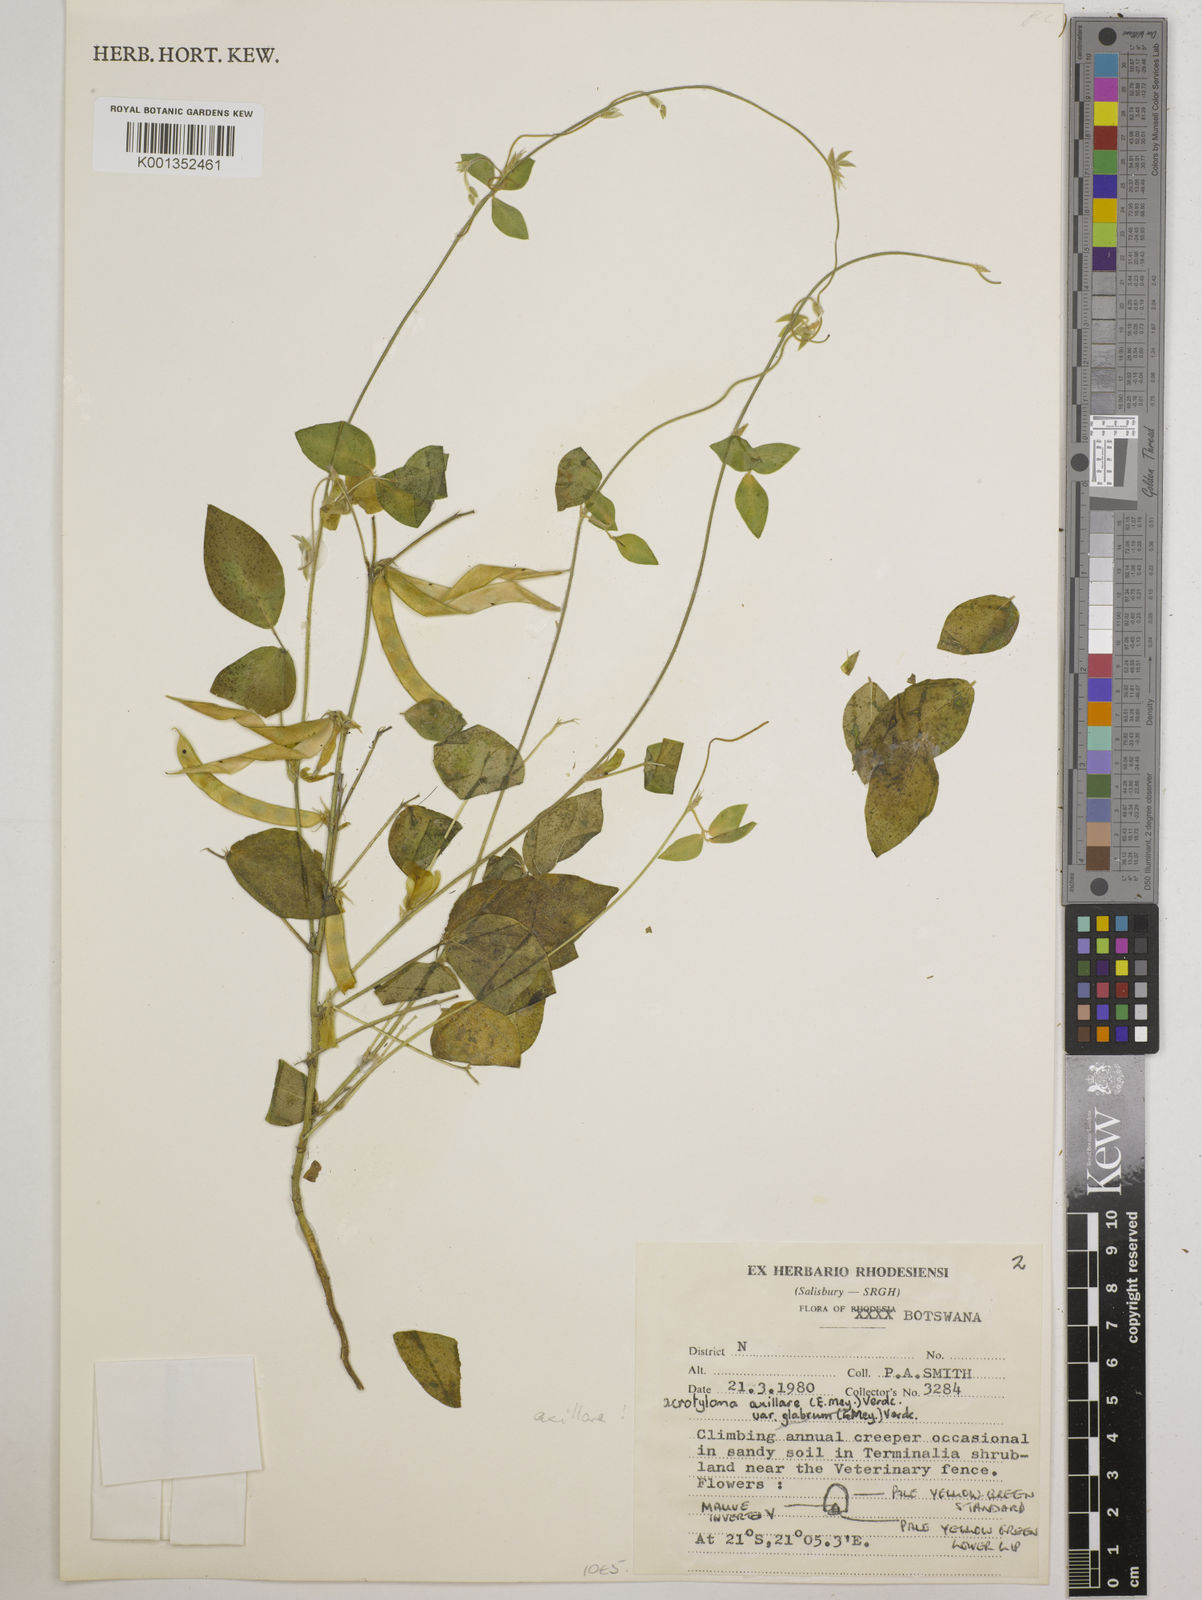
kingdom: Plantae
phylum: Tracheophyta
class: Magnoliopsida
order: Fabales
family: Fabaceae
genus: Macrotyloma
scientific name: Macrotyloma axillare
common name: Perennial horsegram
